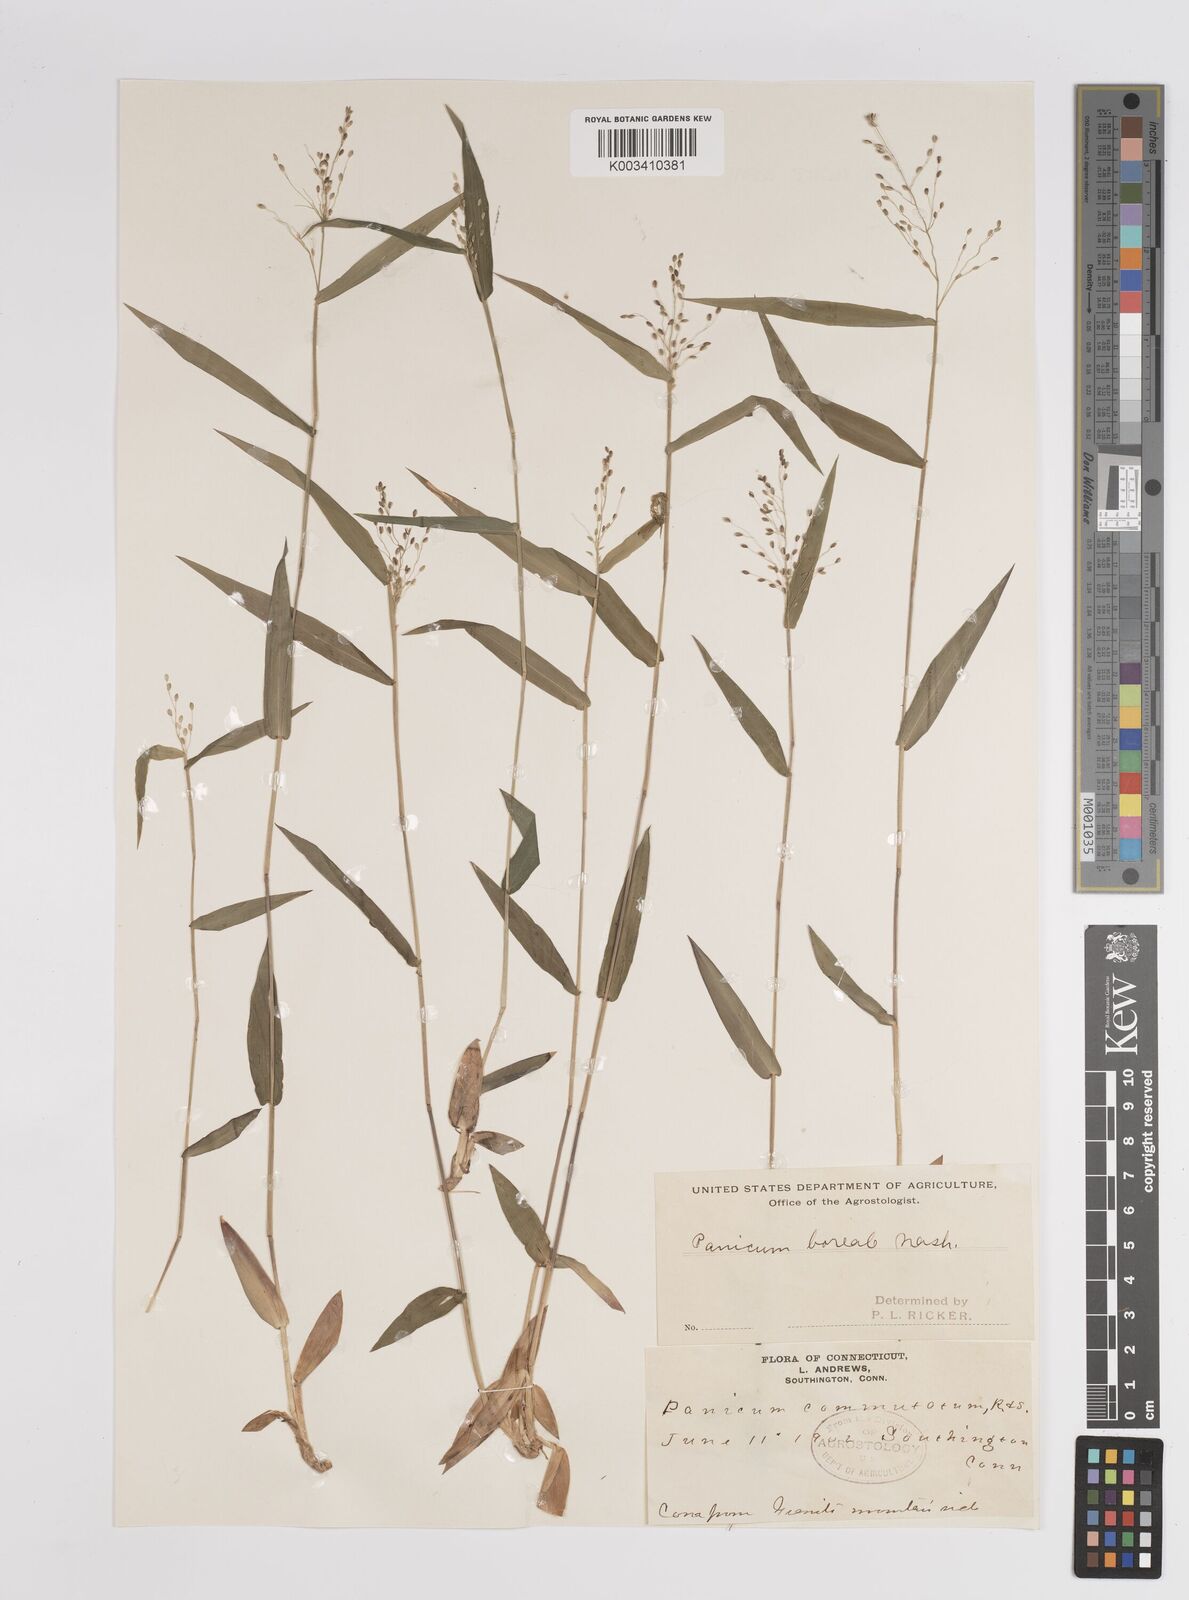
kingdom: Plantae
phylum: Tracheophyta
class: Liliopsida
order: Poales
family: Poaceae
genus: Dichanthelium
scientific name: Dichanthelium boreale
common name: Northern panicgrass
